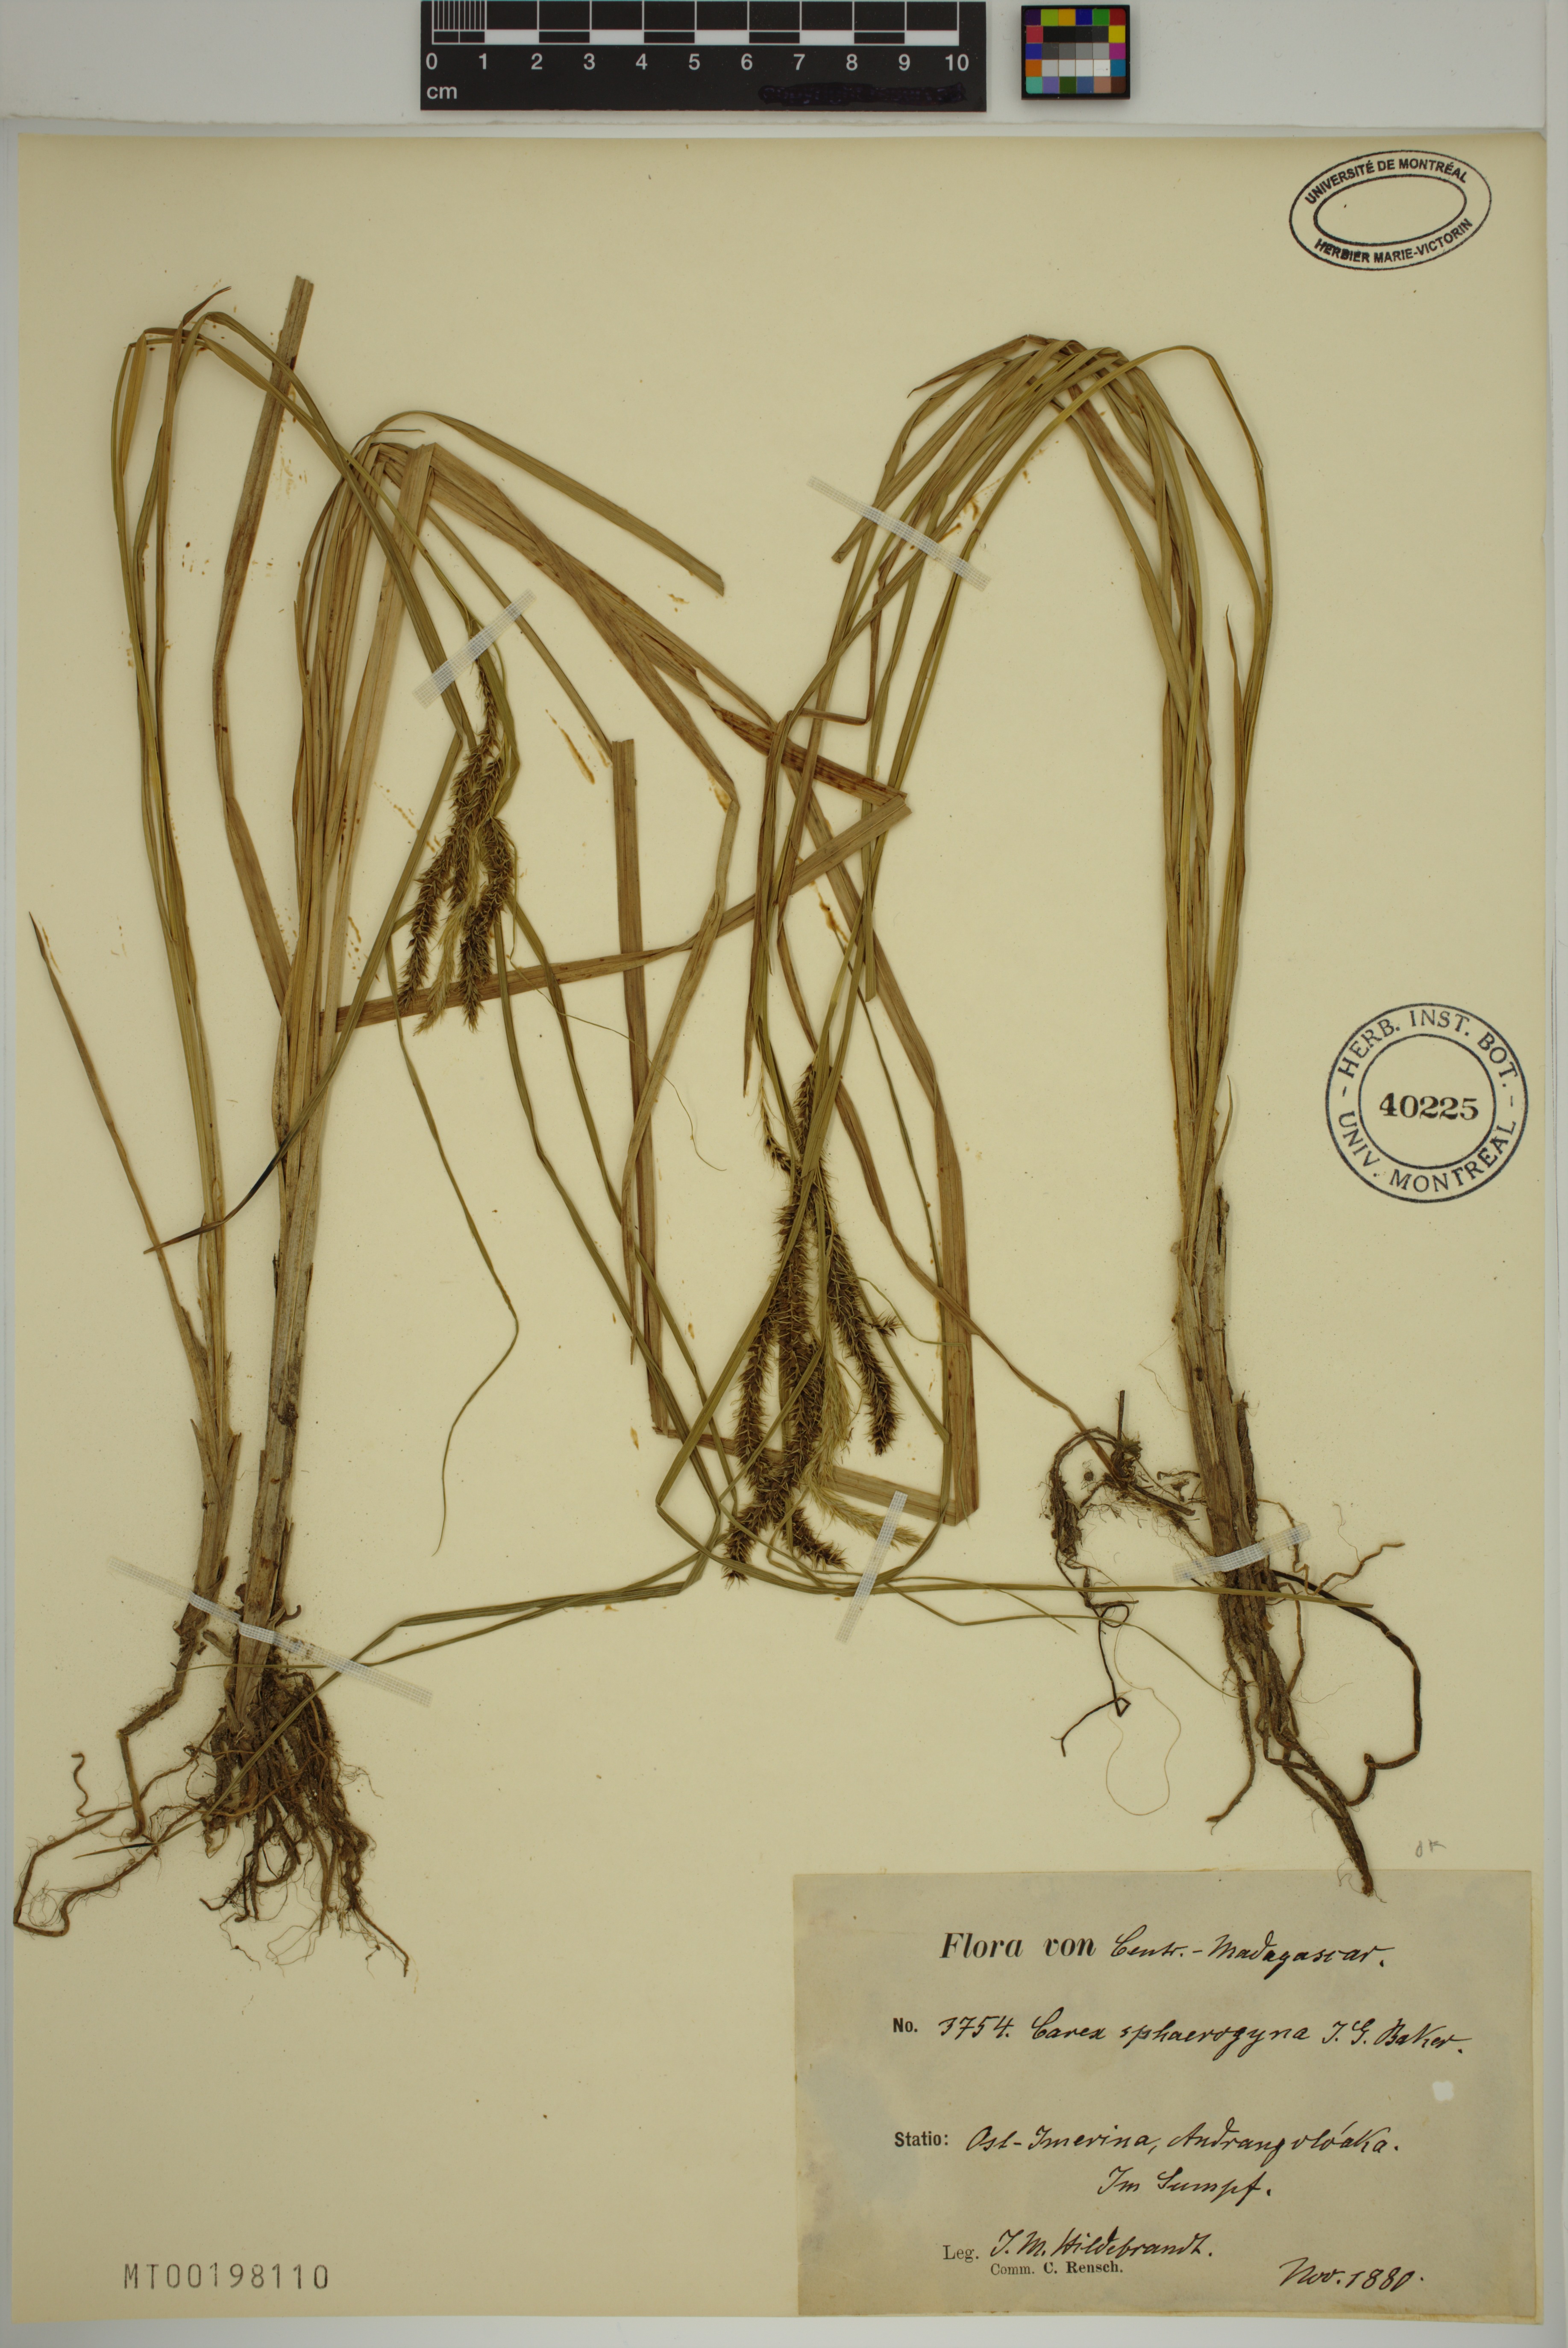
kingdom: Plantae
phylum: Tracheophyta
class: Liliopsida
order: Poales
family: Cyperaceae
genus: Carex
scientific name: Carex sphaerogyna
